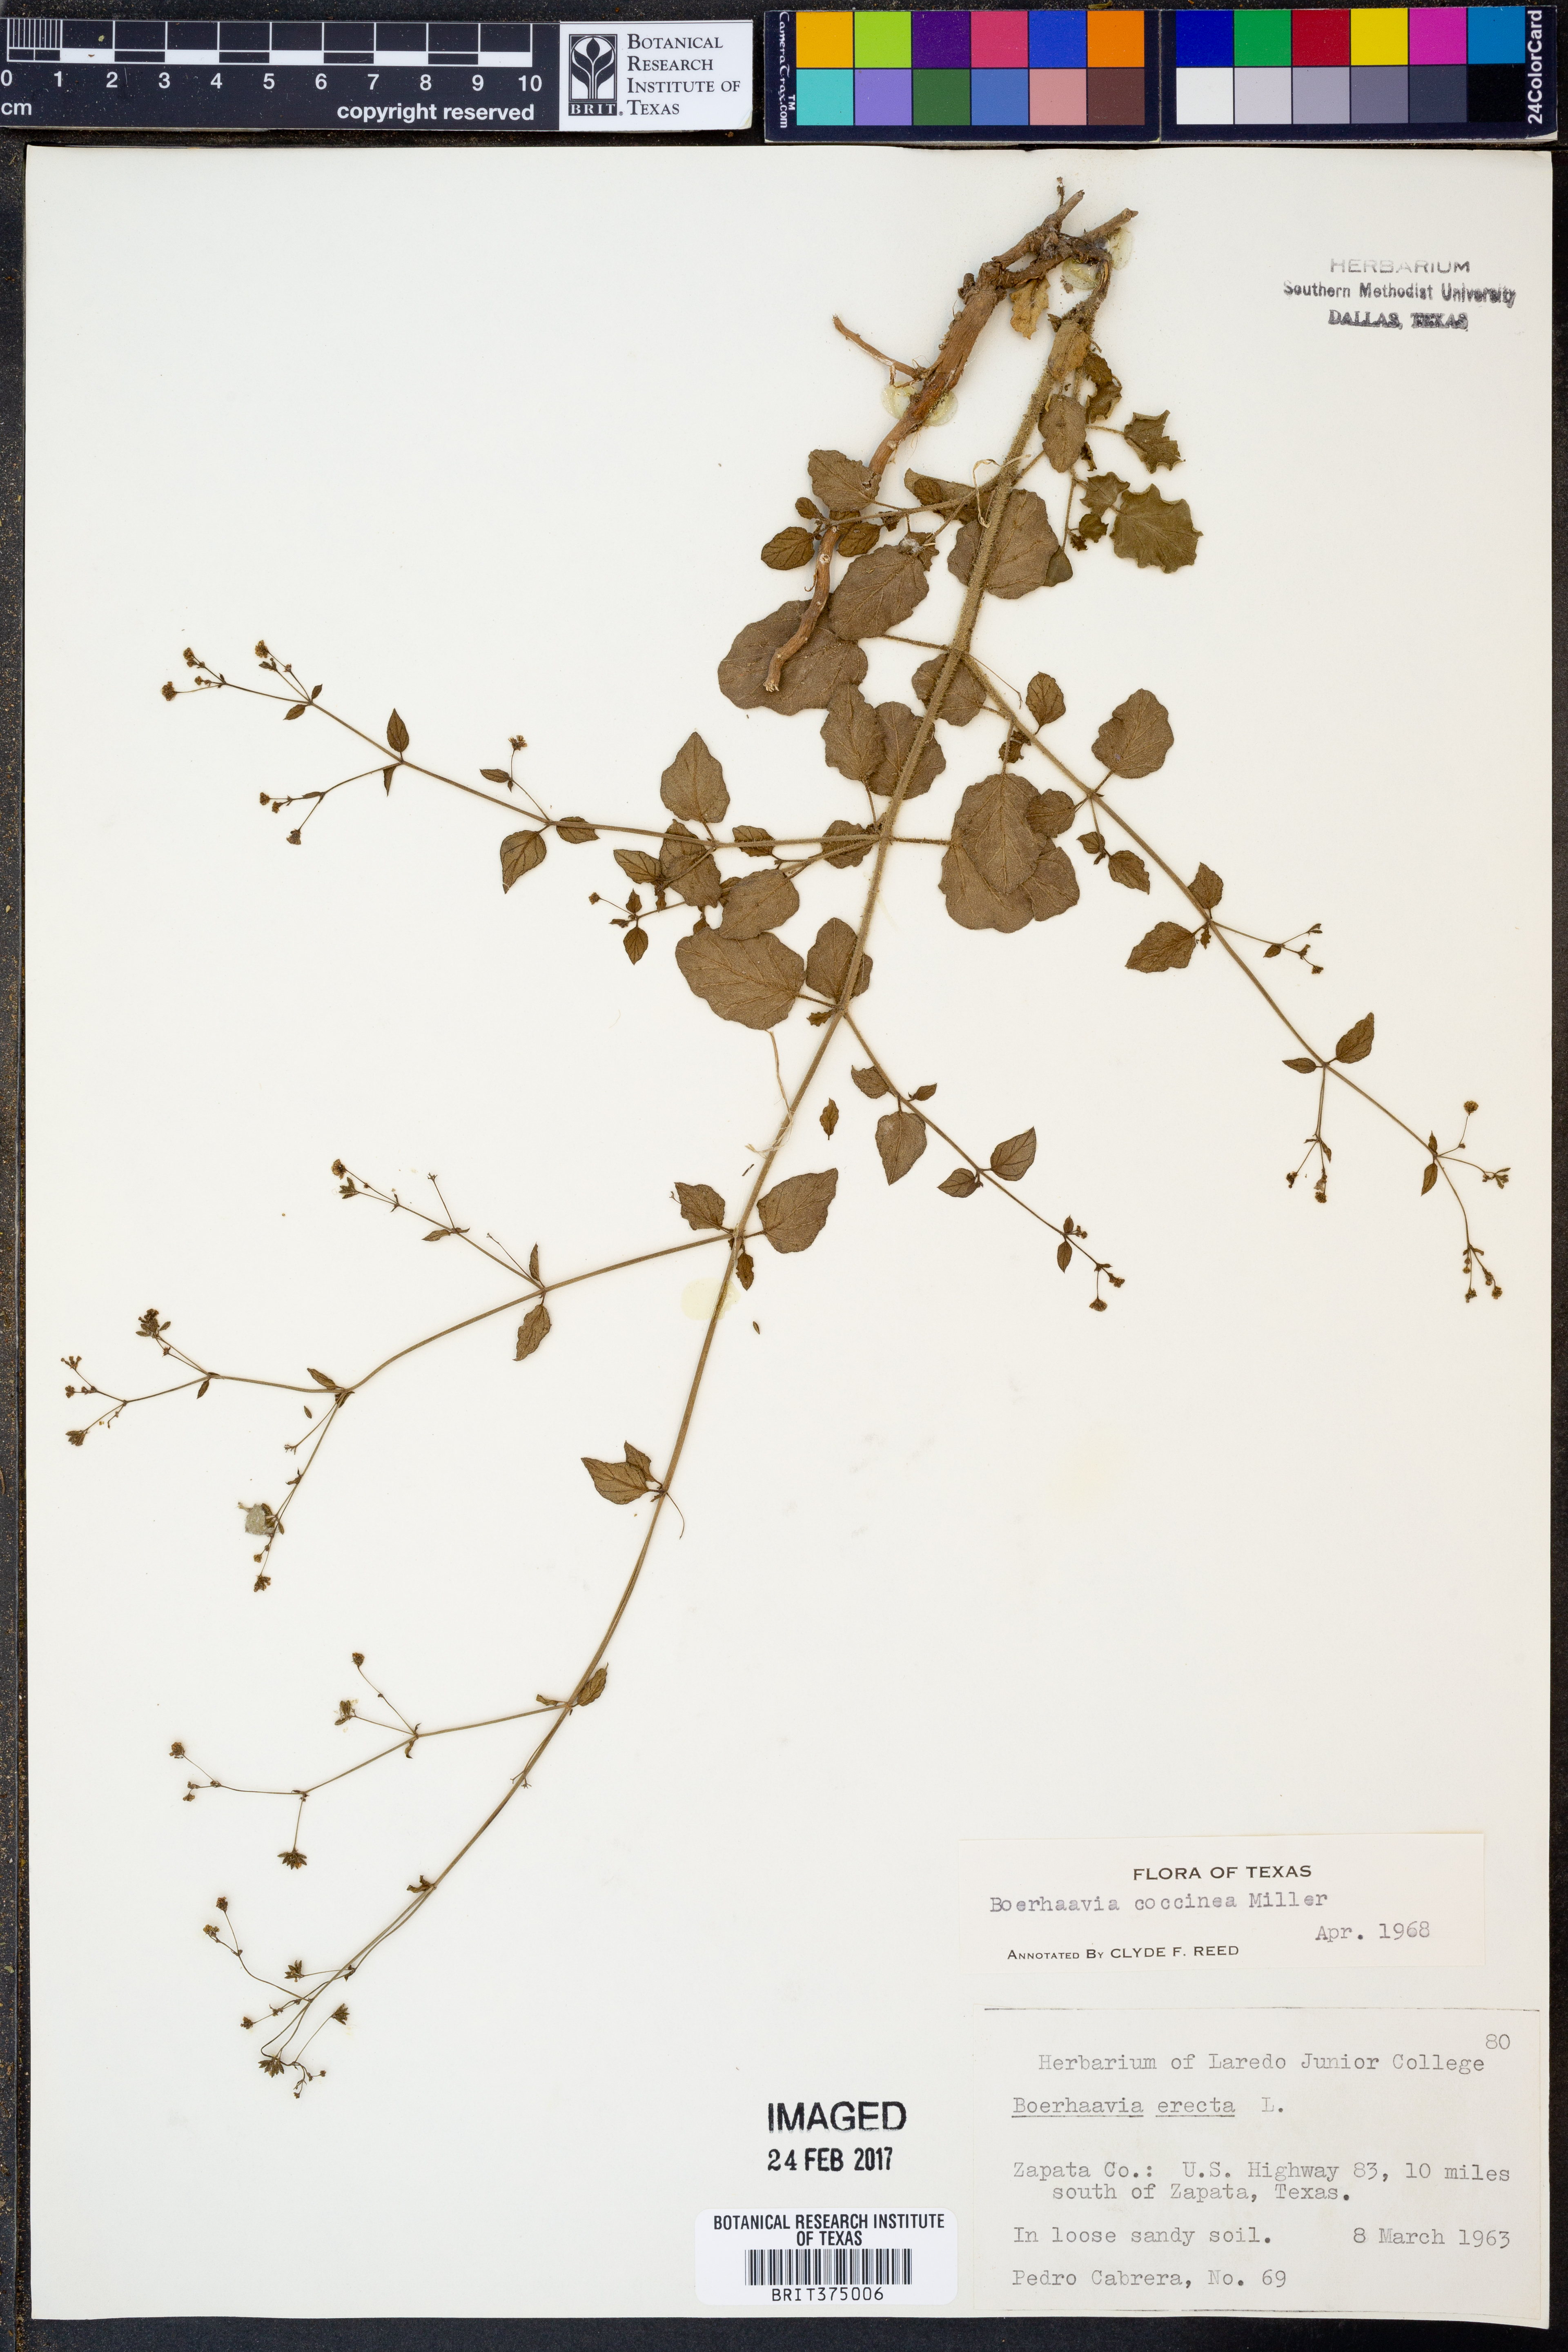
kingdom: Plantae
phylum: Tracheophyta
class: Magnoliopsida
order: Caryophyllales
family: Nyctaginaceae
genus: Boerhavia
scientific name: Boerhavia coccinea
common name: Scarlet spiderling
